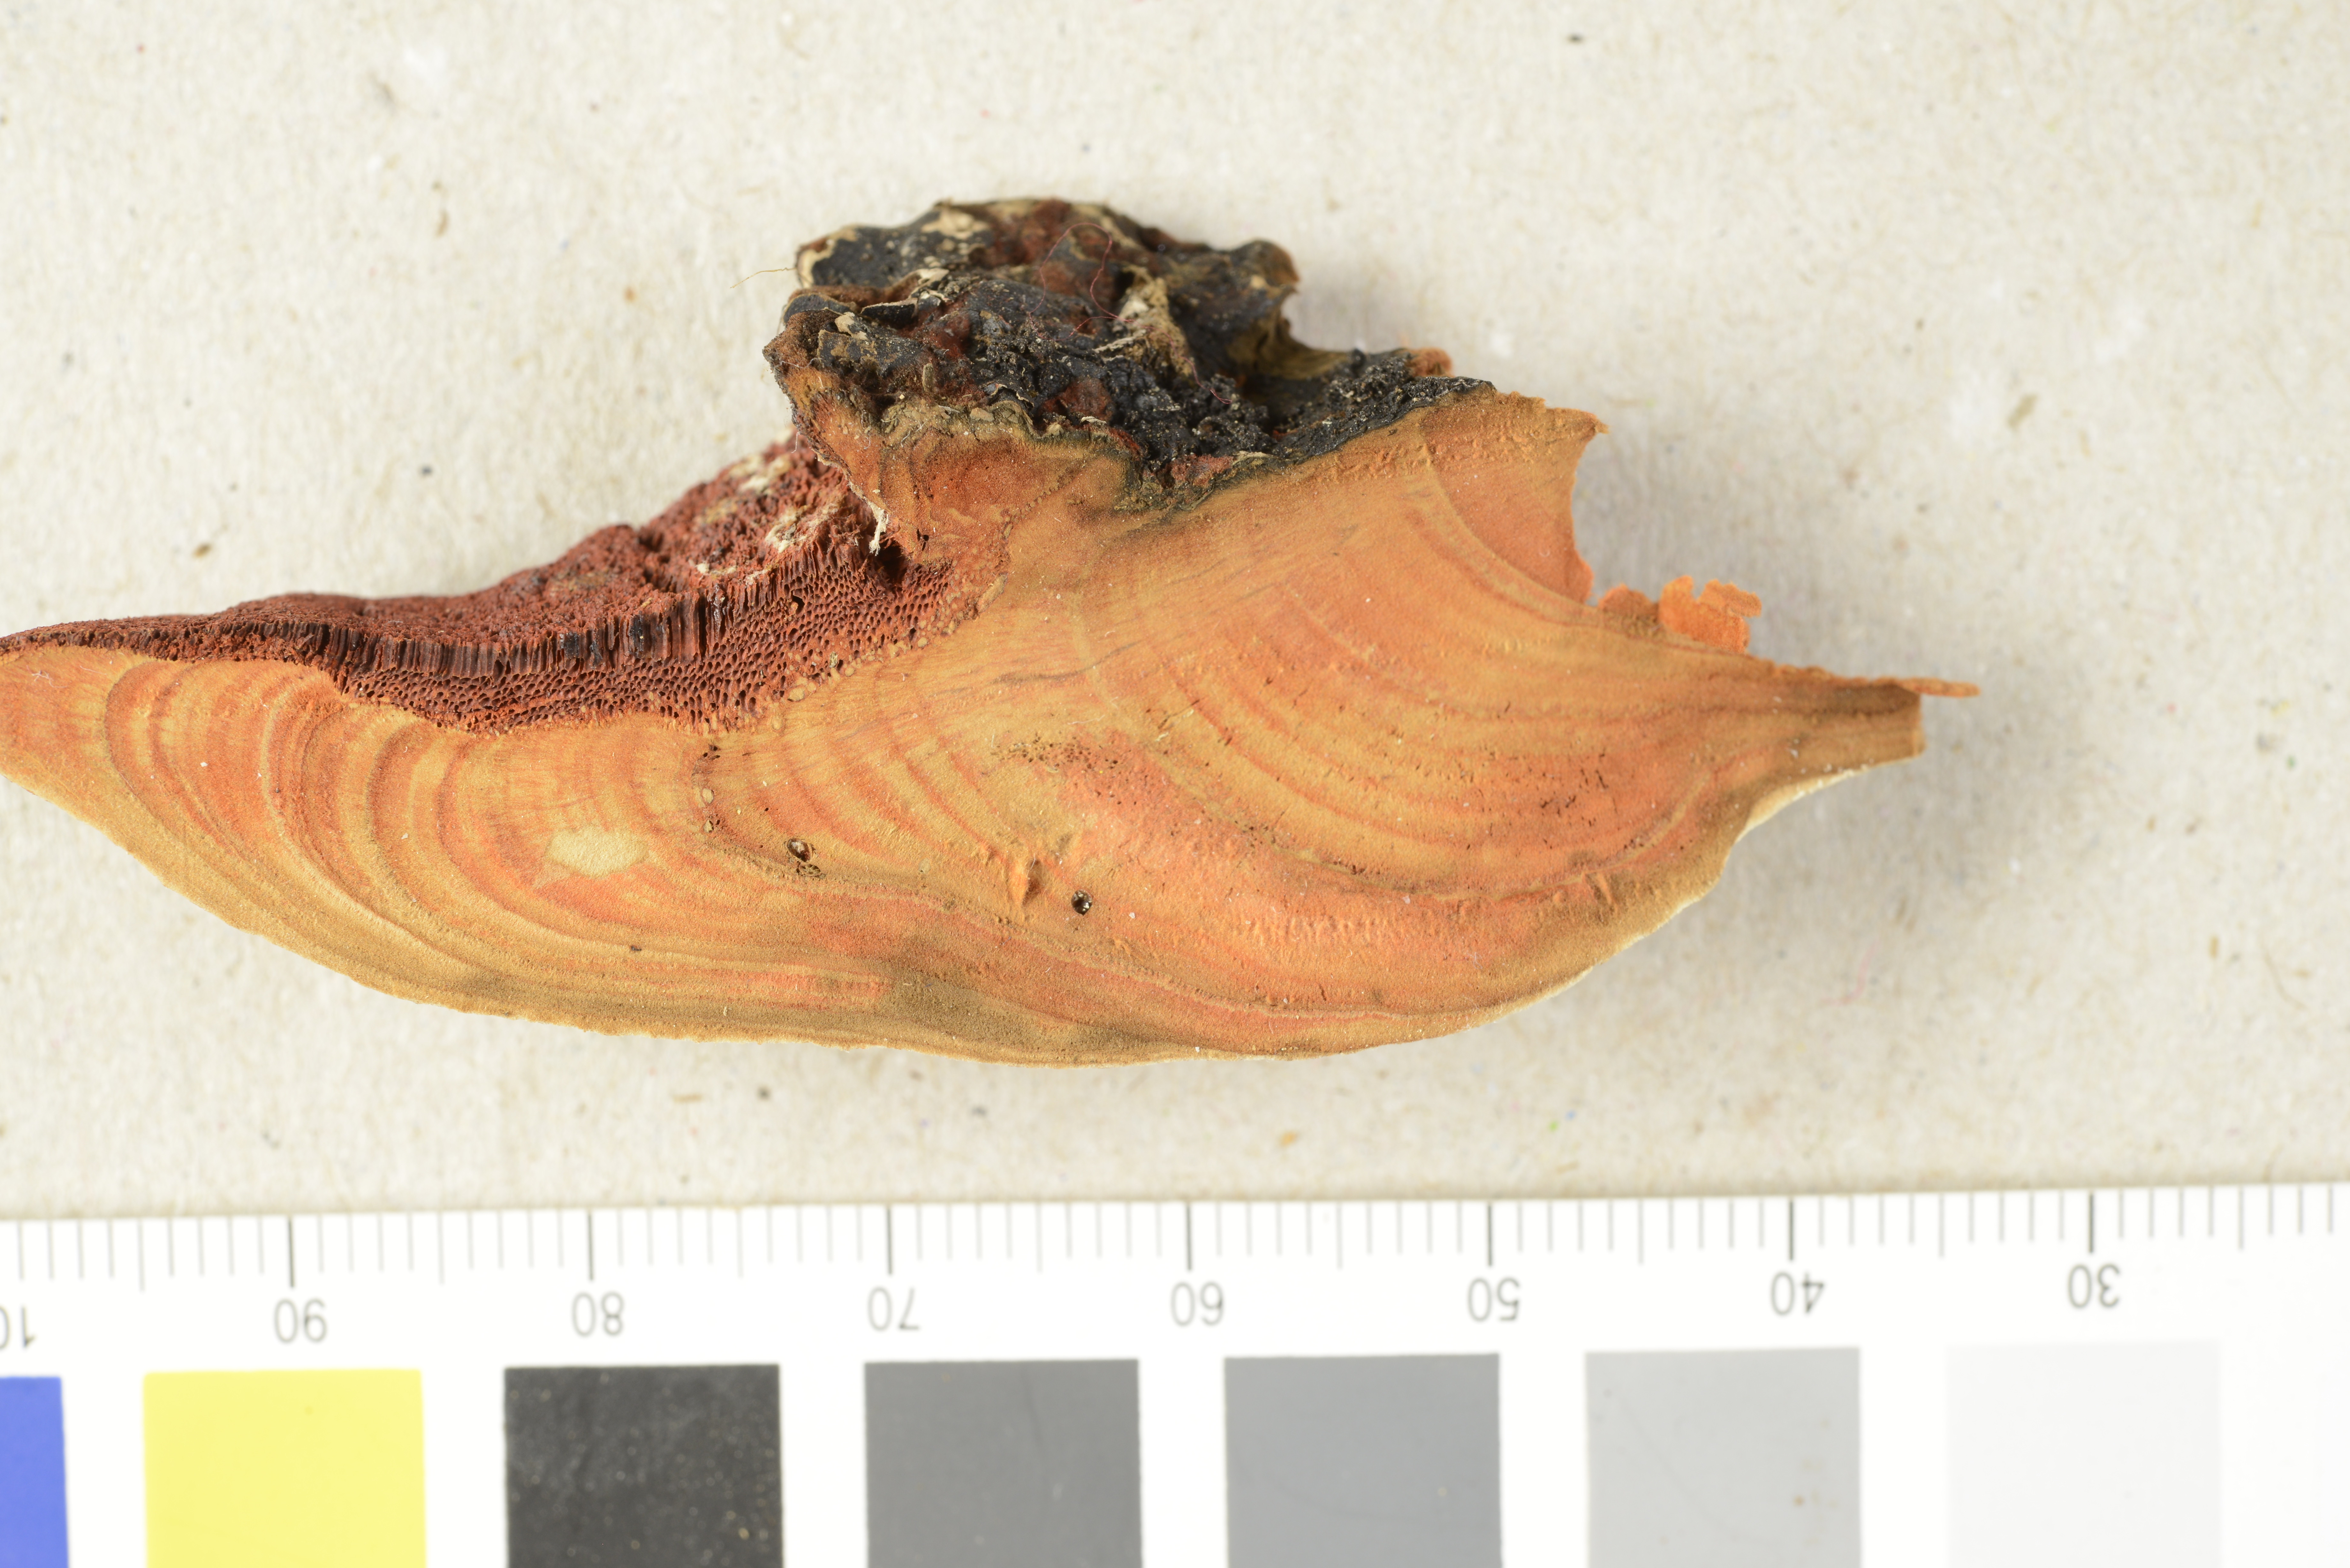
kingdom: Fungi
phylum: Basidiomycota
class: Agaricomycetes
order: Polyporales
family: Polyporaceae
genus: Rubroporus
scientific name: Rubroporus carneoporis
